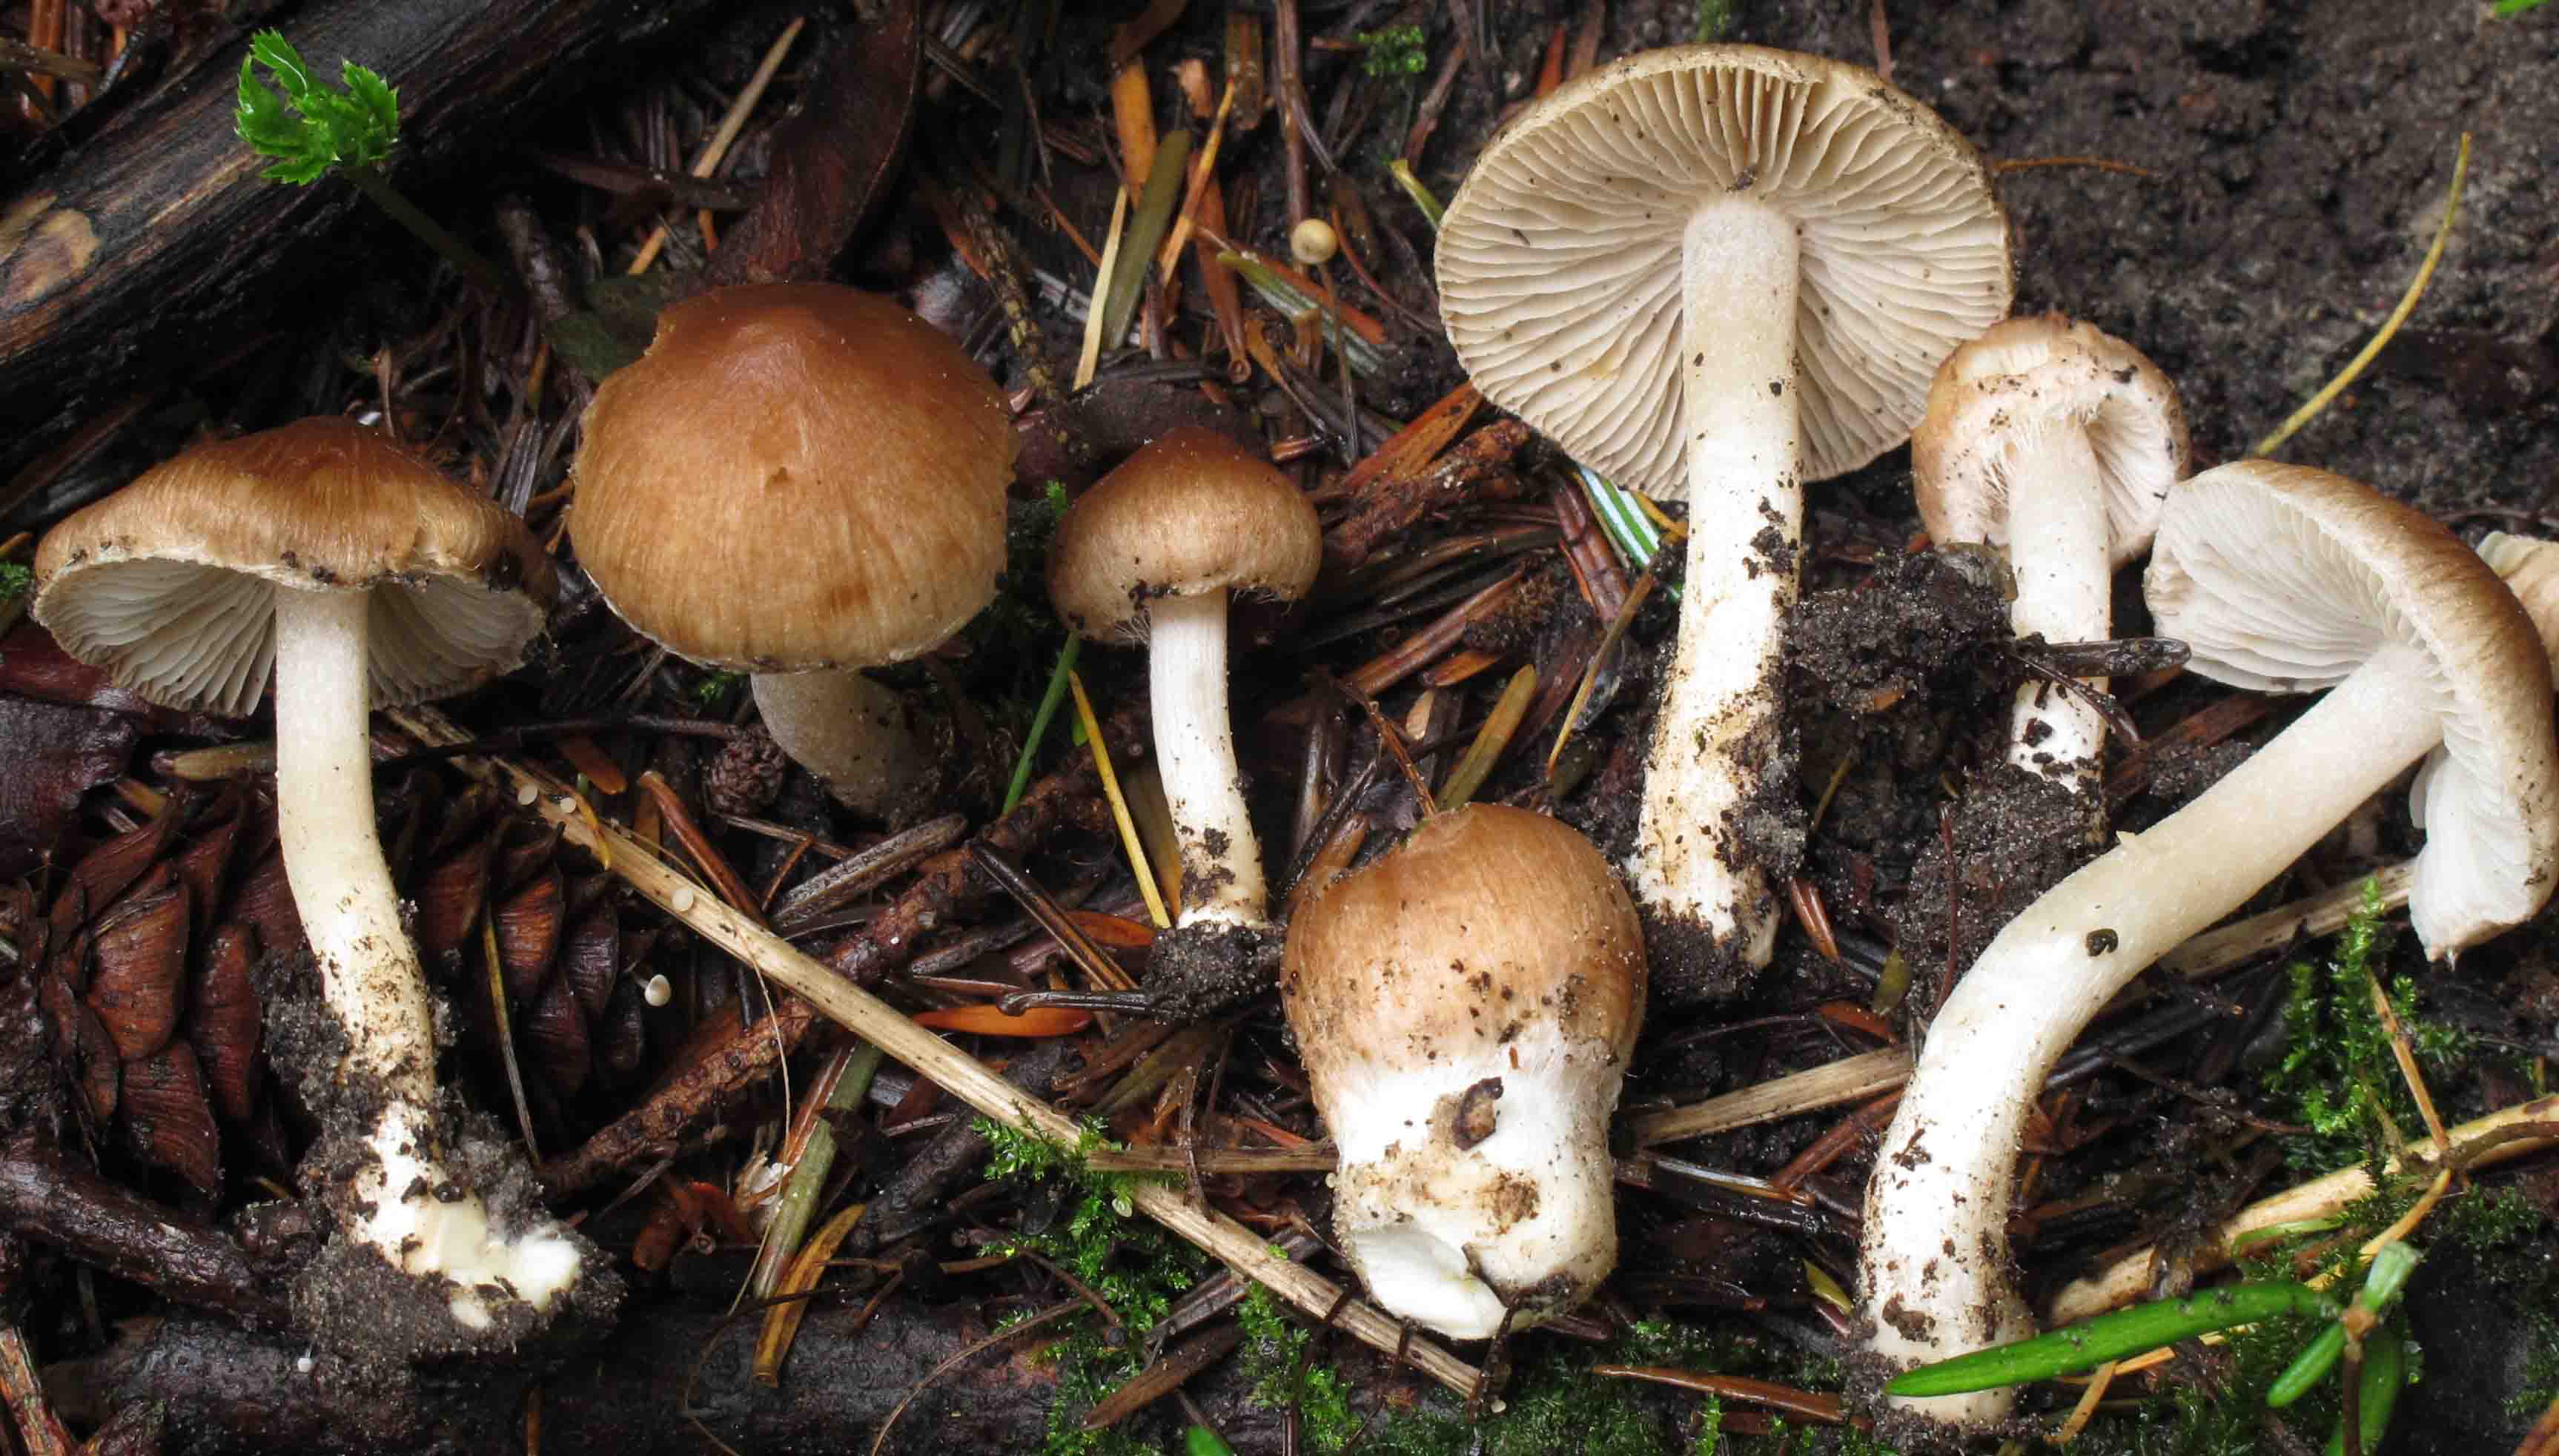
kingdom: Fungi
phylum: Basidiomycota
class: Agaricomycetes
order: Agaricales
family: Inocybaceae
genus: Inocybe
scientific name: Inocybe
